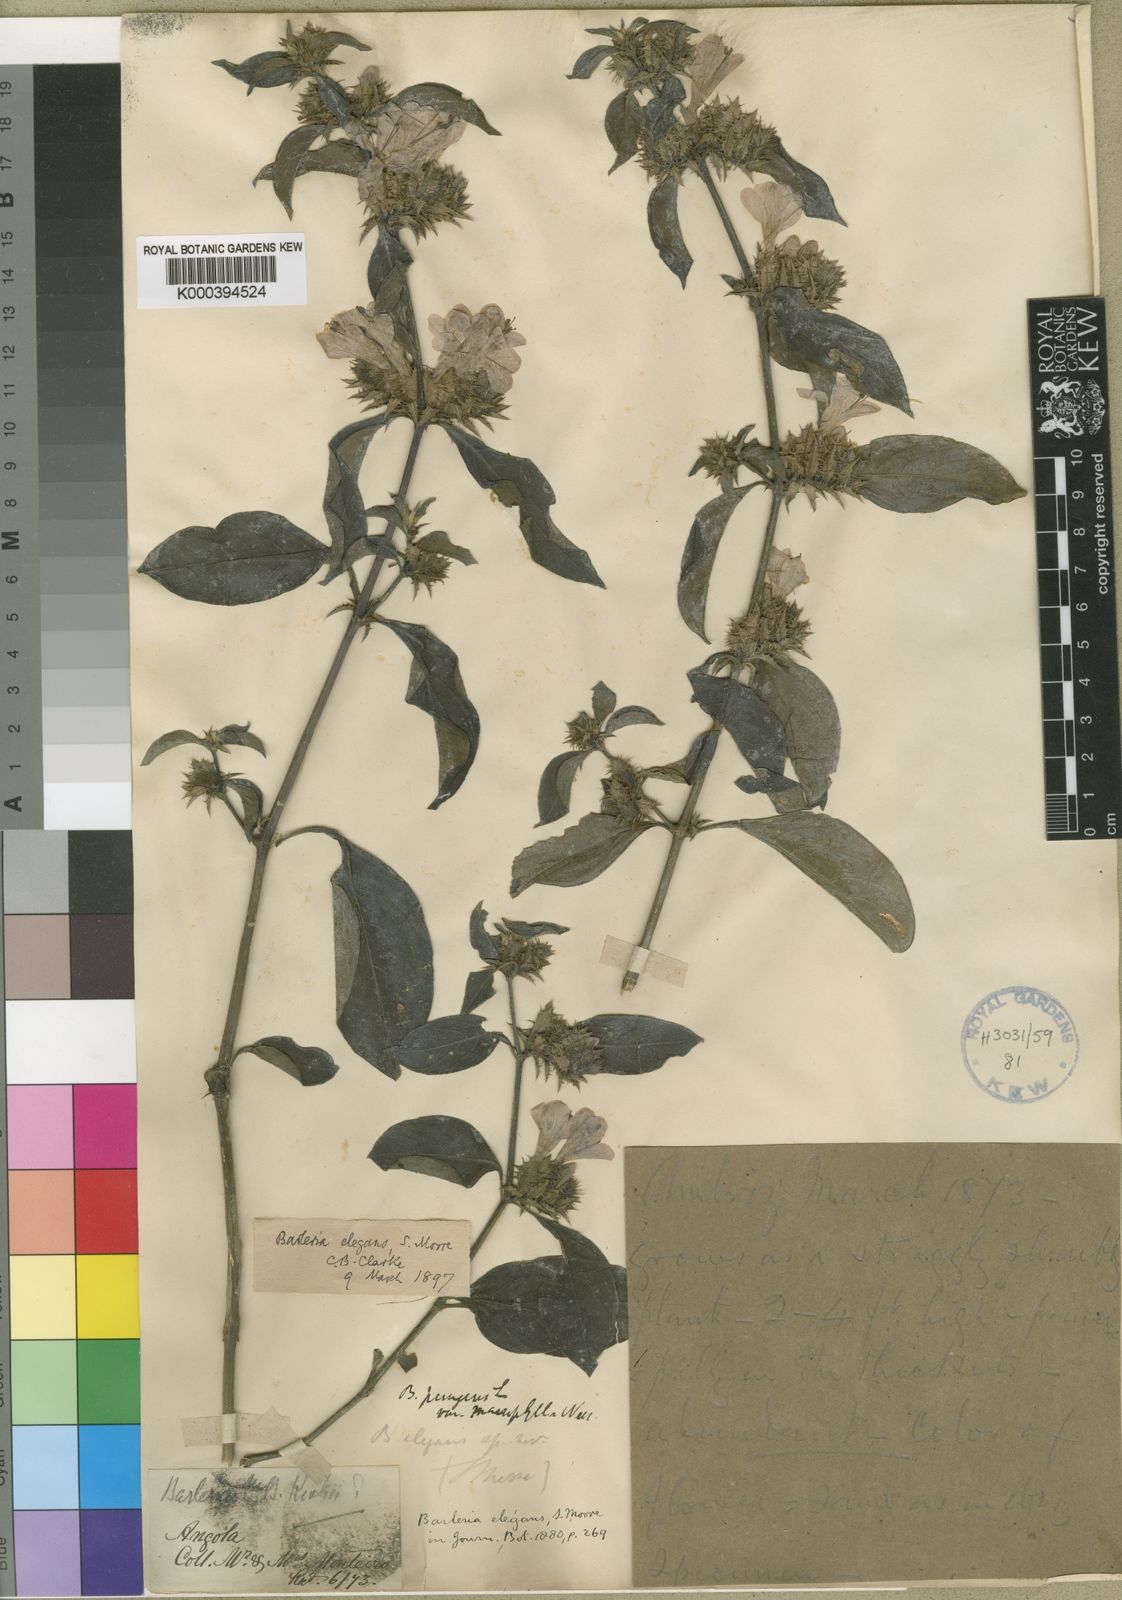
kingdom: Plantae
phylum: Tracheophyta
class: Magnoliopsida
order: Lamiales
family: Acanthaceae
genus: Barleria
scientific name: Barleria
